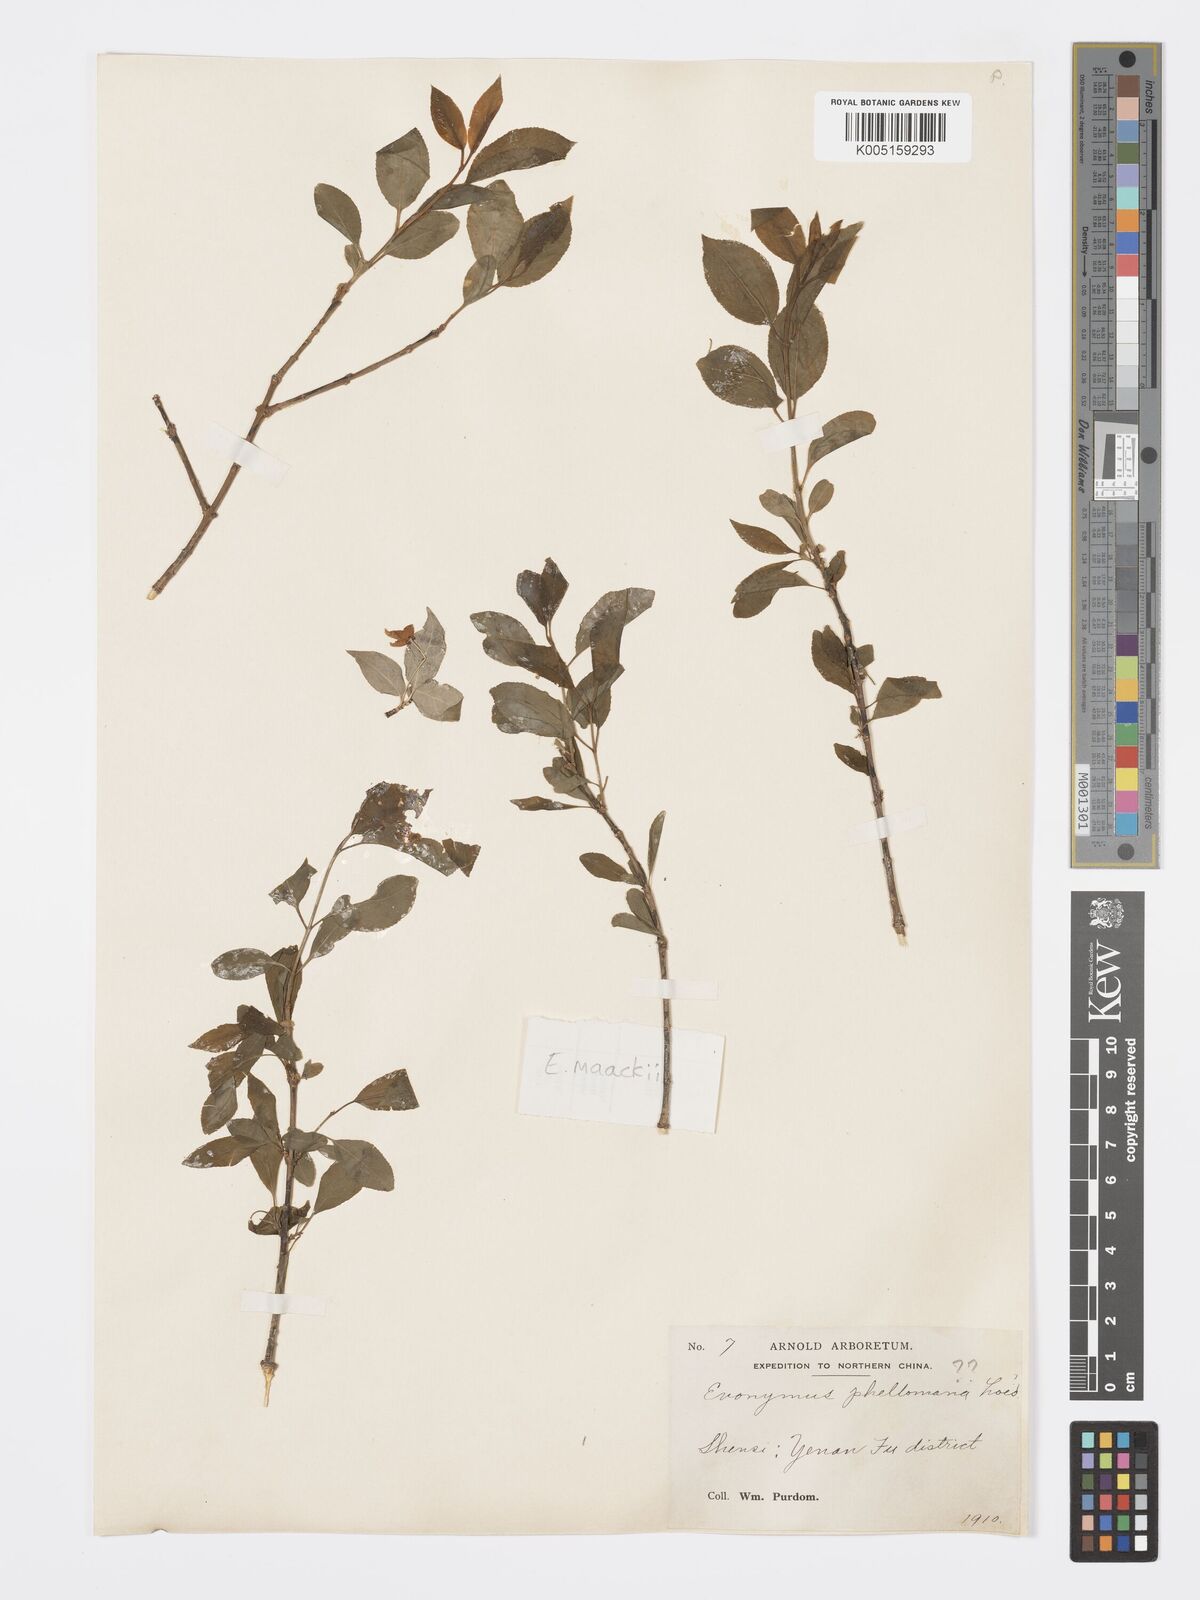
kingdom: Plantae
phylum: Tracheophyta
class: Magnoliopsida
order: Celastrales
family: Celastraceae
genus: Euonymus
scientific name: Euonymus maackii
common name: Hamilton's spindletree
